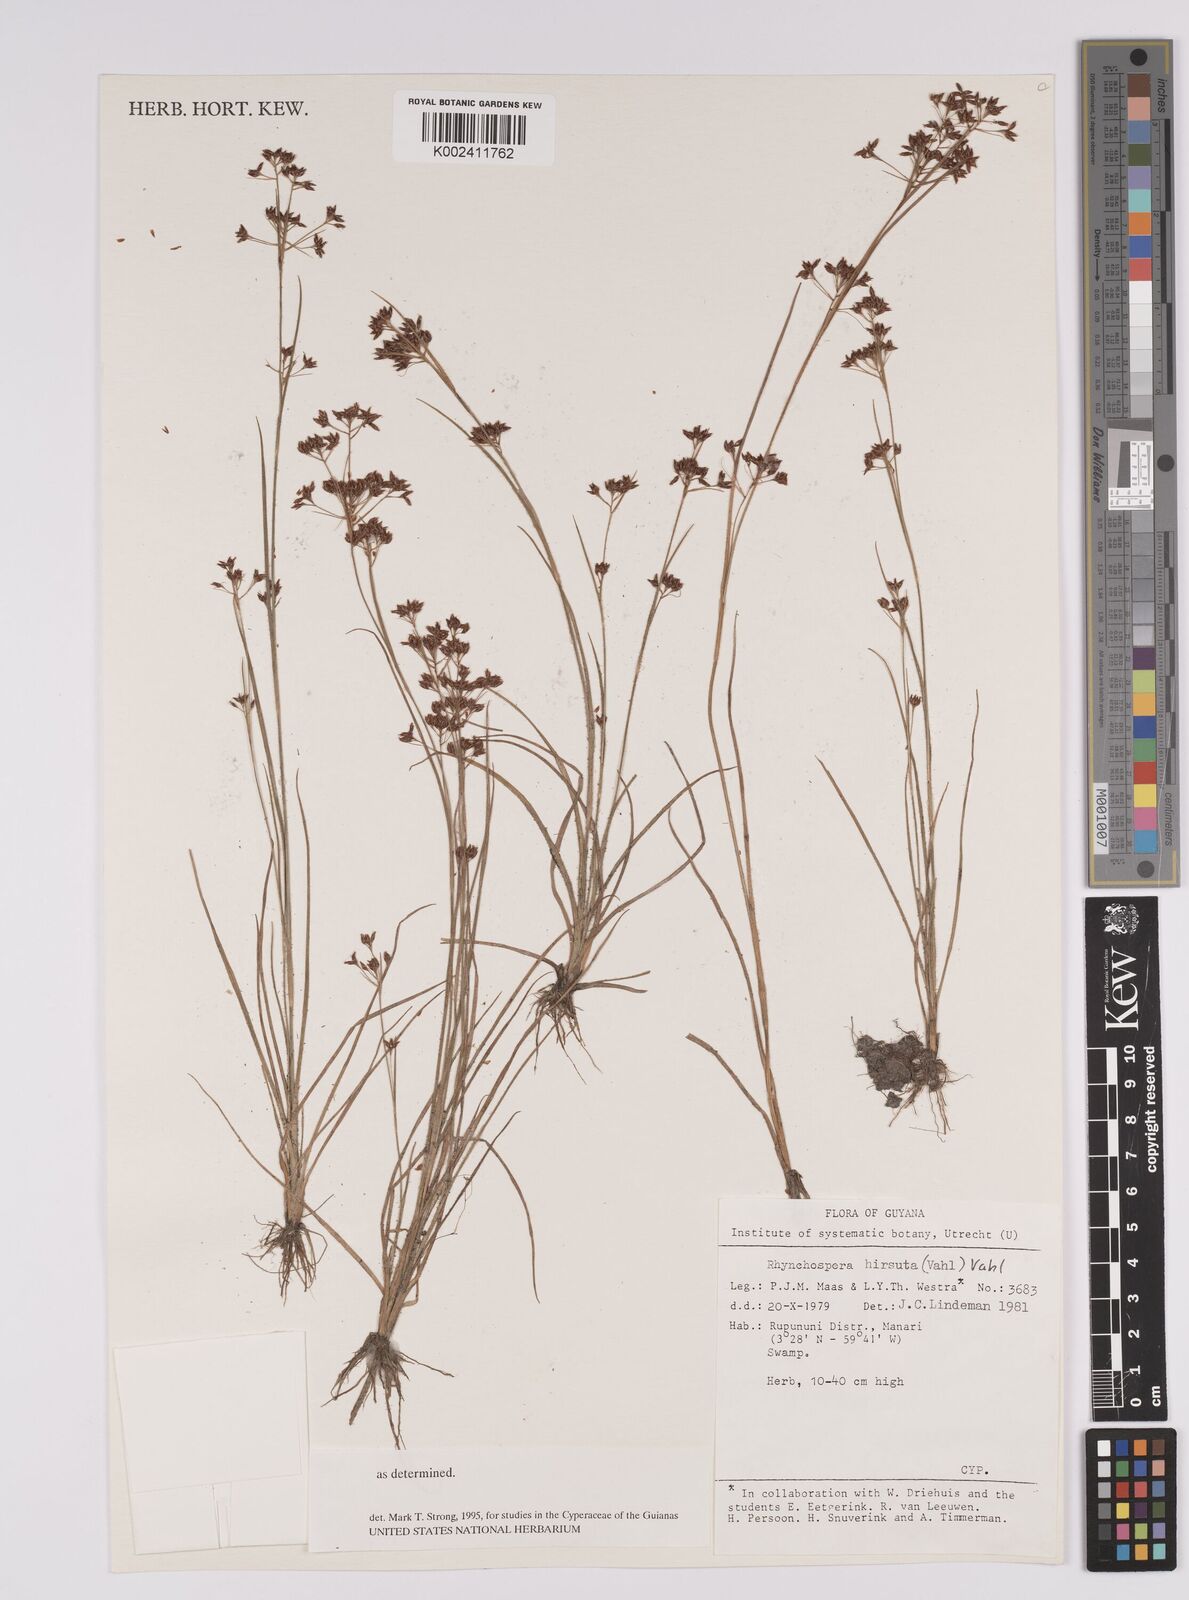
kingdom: Plantae
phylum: Tracheophyta
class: Liliopsida
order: Poales
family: Cyperaceae
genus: Rhynchospora
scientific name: Rhynchospora hirsuta
